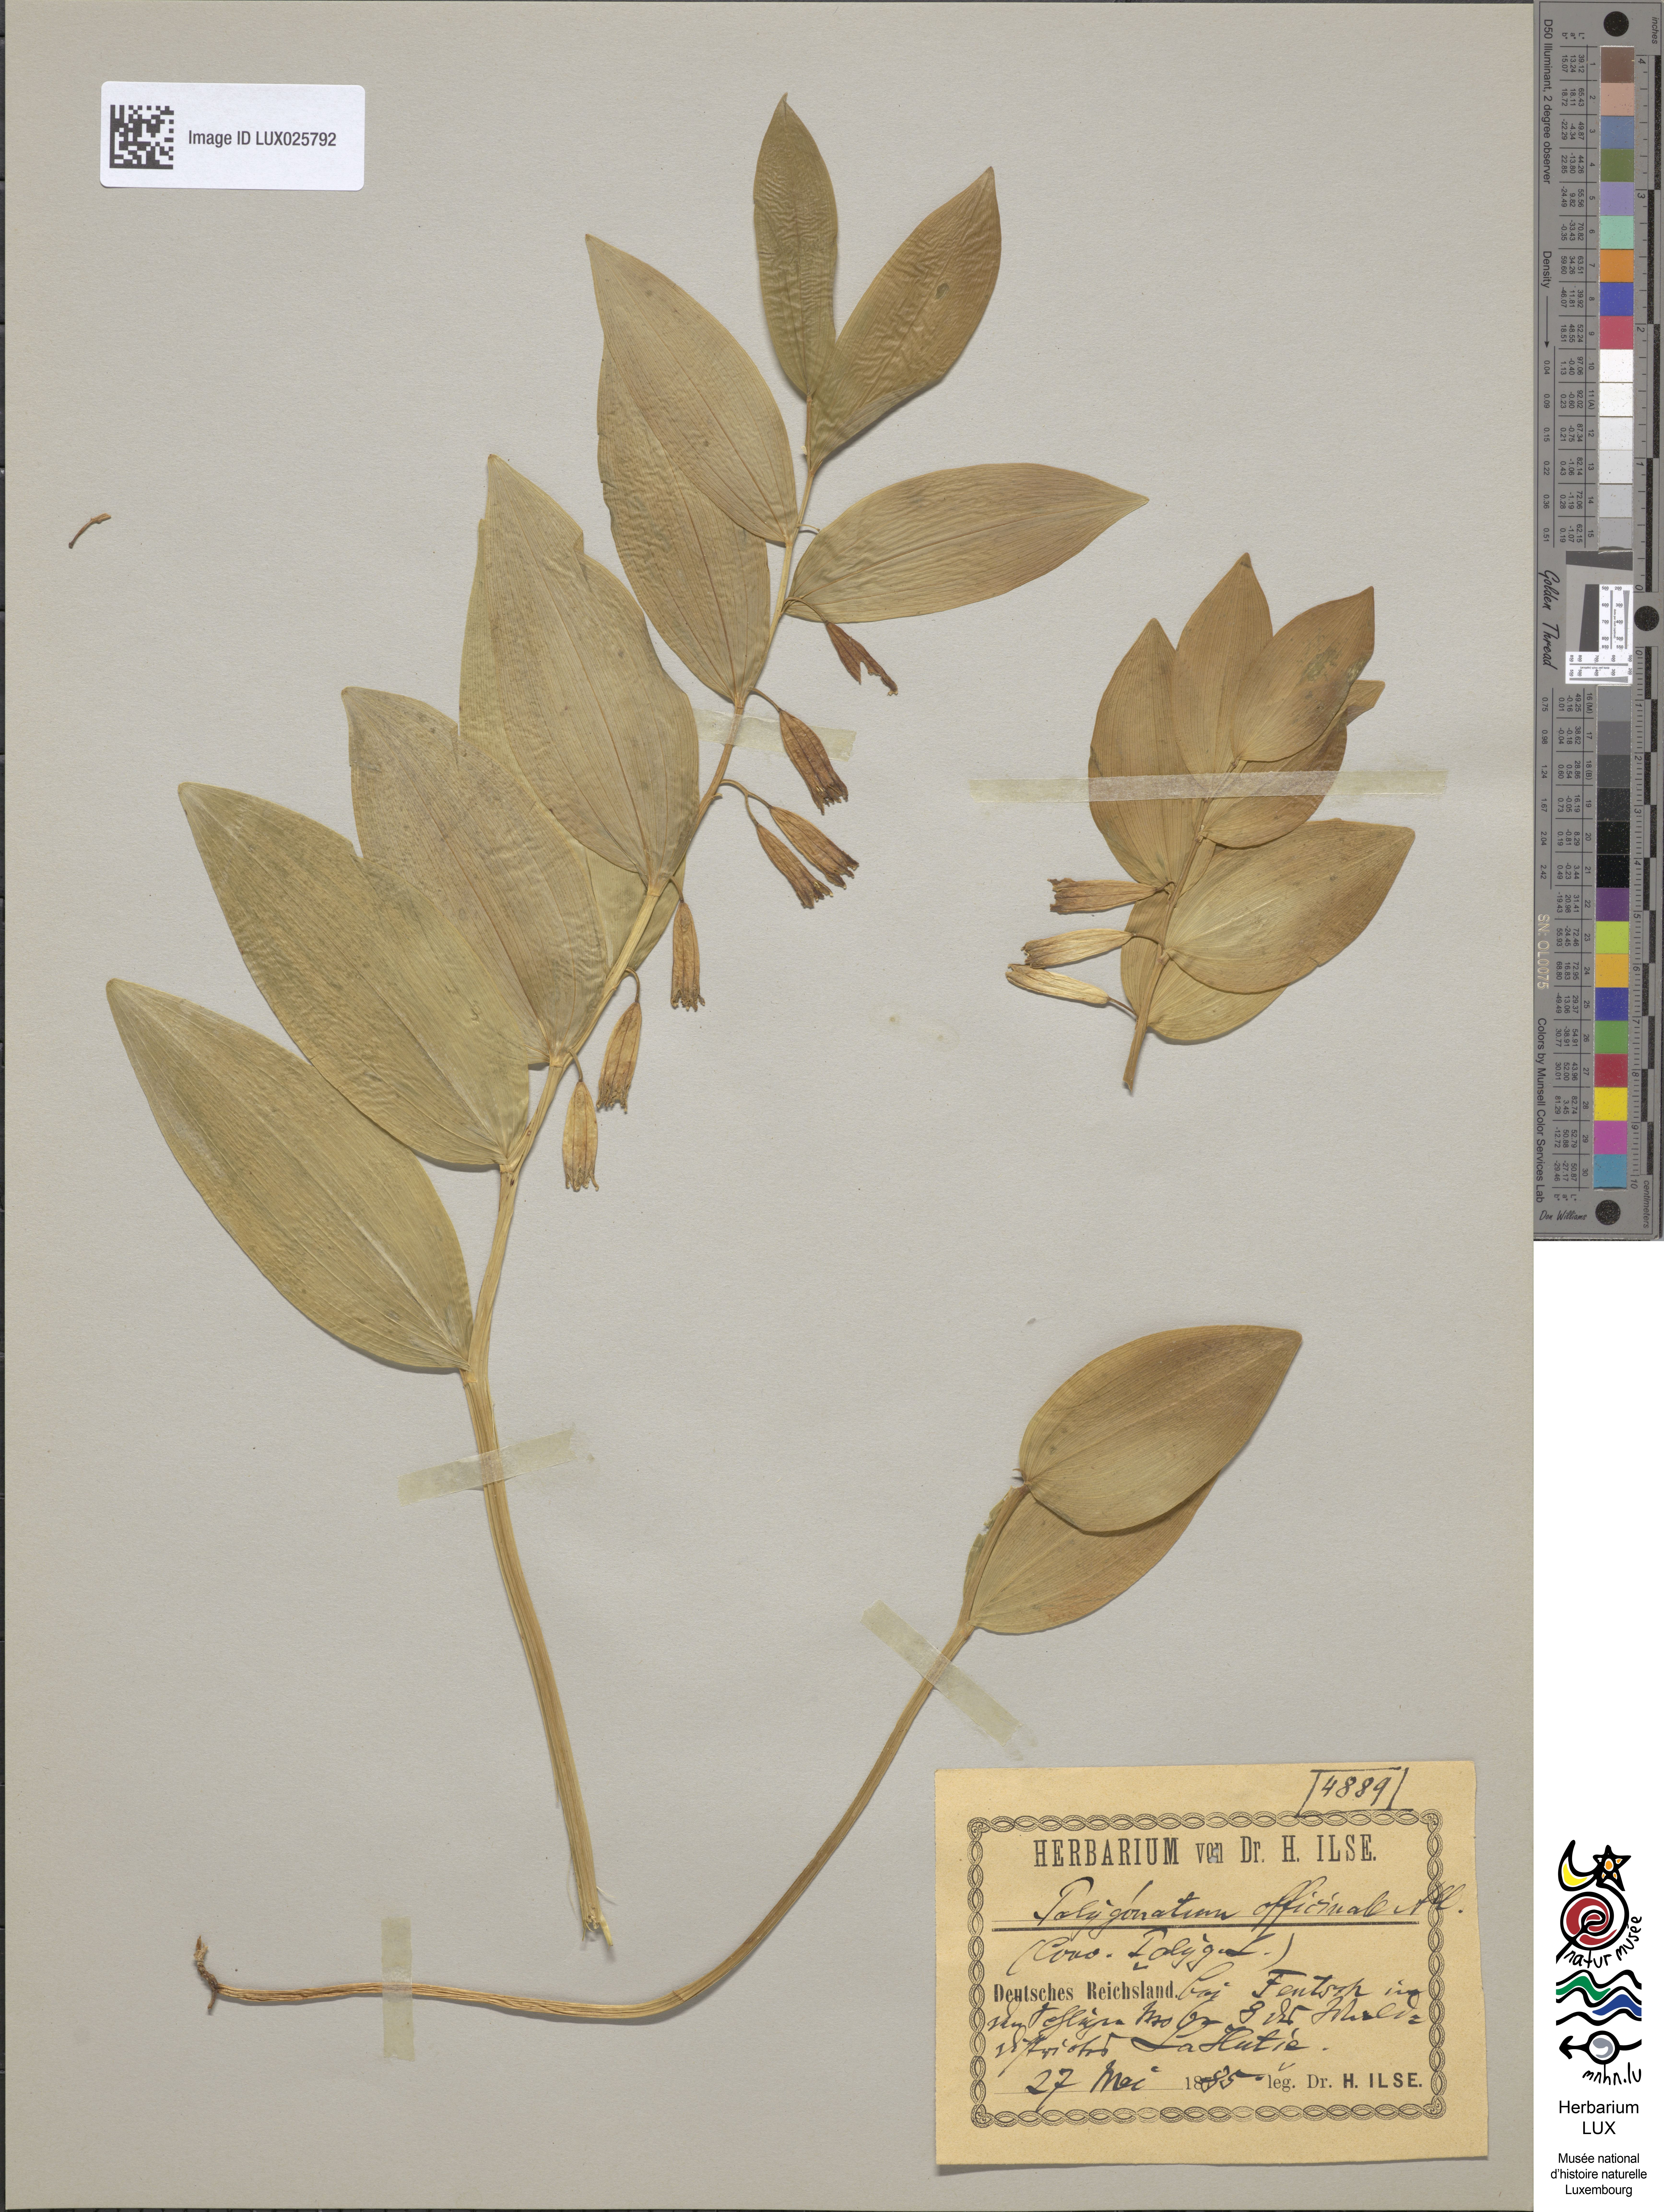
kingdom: Plantae
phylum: Tracheophyta
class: Liliopsida
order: Asparagales
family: Asparagaceae
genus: Polygonatum
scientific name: Polygonatum odoratum
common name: Angular solomon's-seal
